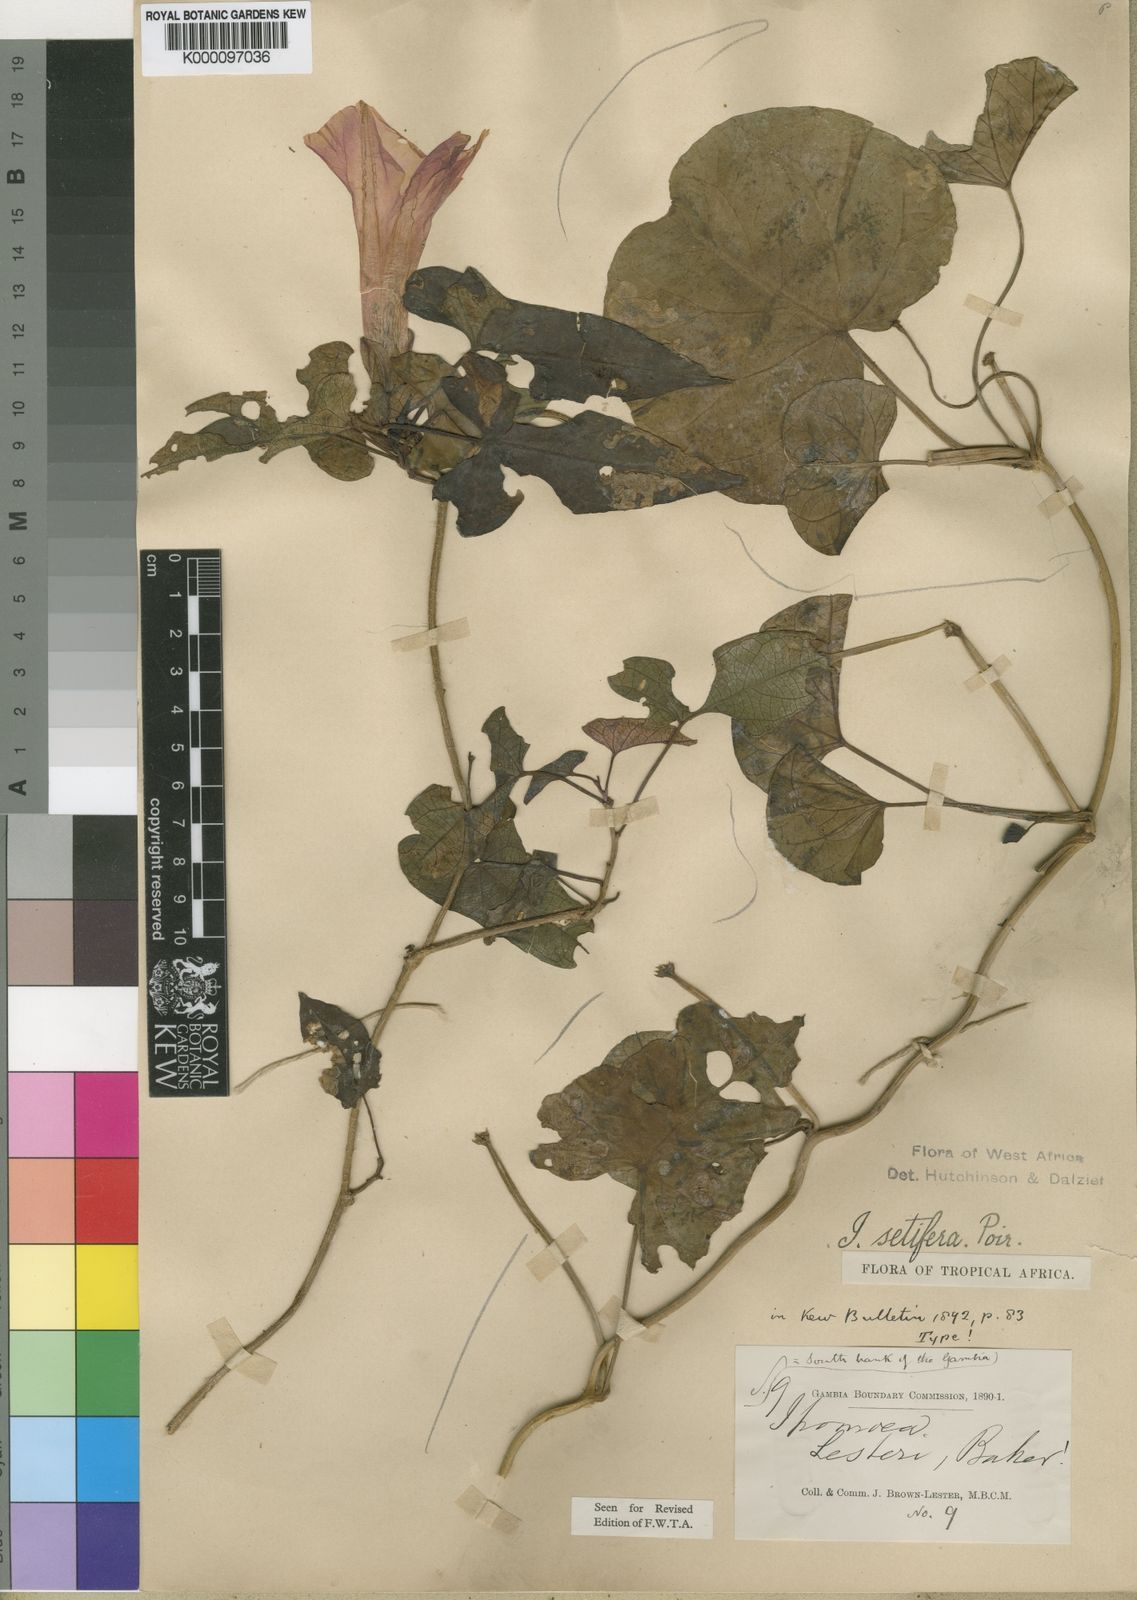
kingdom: Plantae
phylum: Tracheophyta
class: Magnoliopsida
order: Solanales
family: Convolvulaceae
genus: Ipomoea
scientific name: Ipomoea setifera
